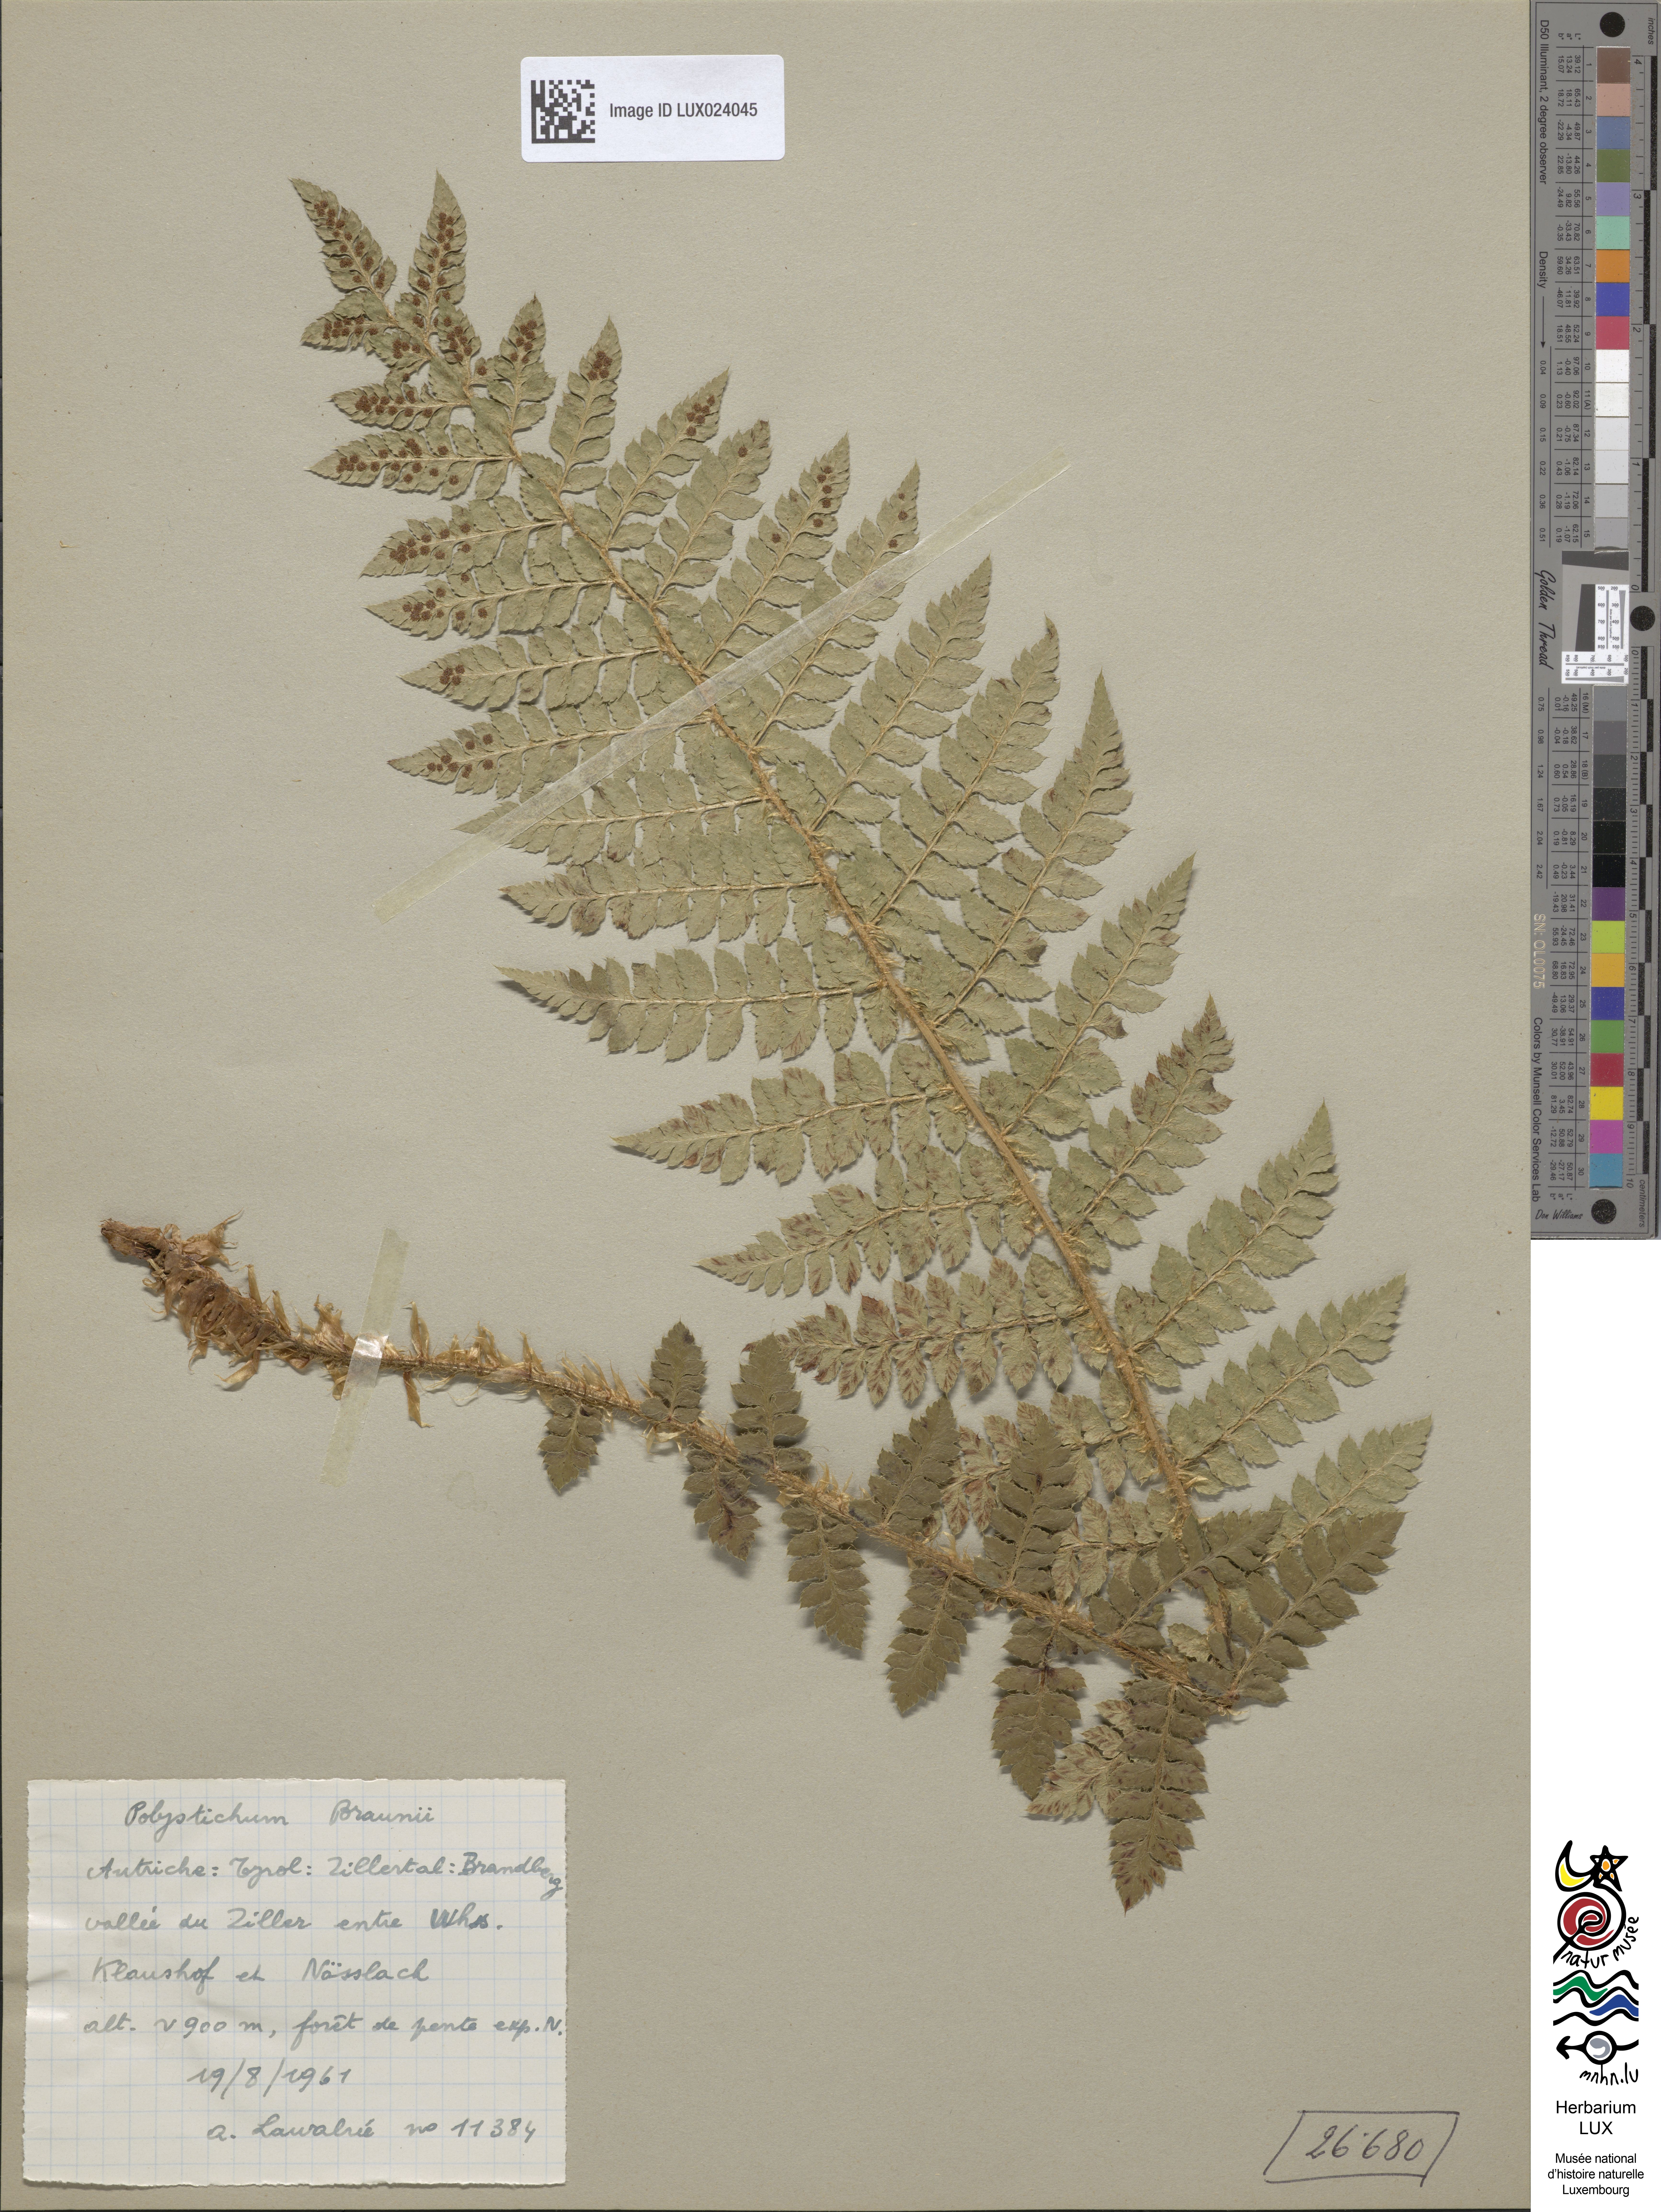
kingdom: Plantae
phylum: Tracheophyta
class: Polypodiopsida
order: Polypodiales
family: Dryopteridaceae
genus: Polystichum
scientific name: Polystichum braunii
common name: Braun's holly fern
